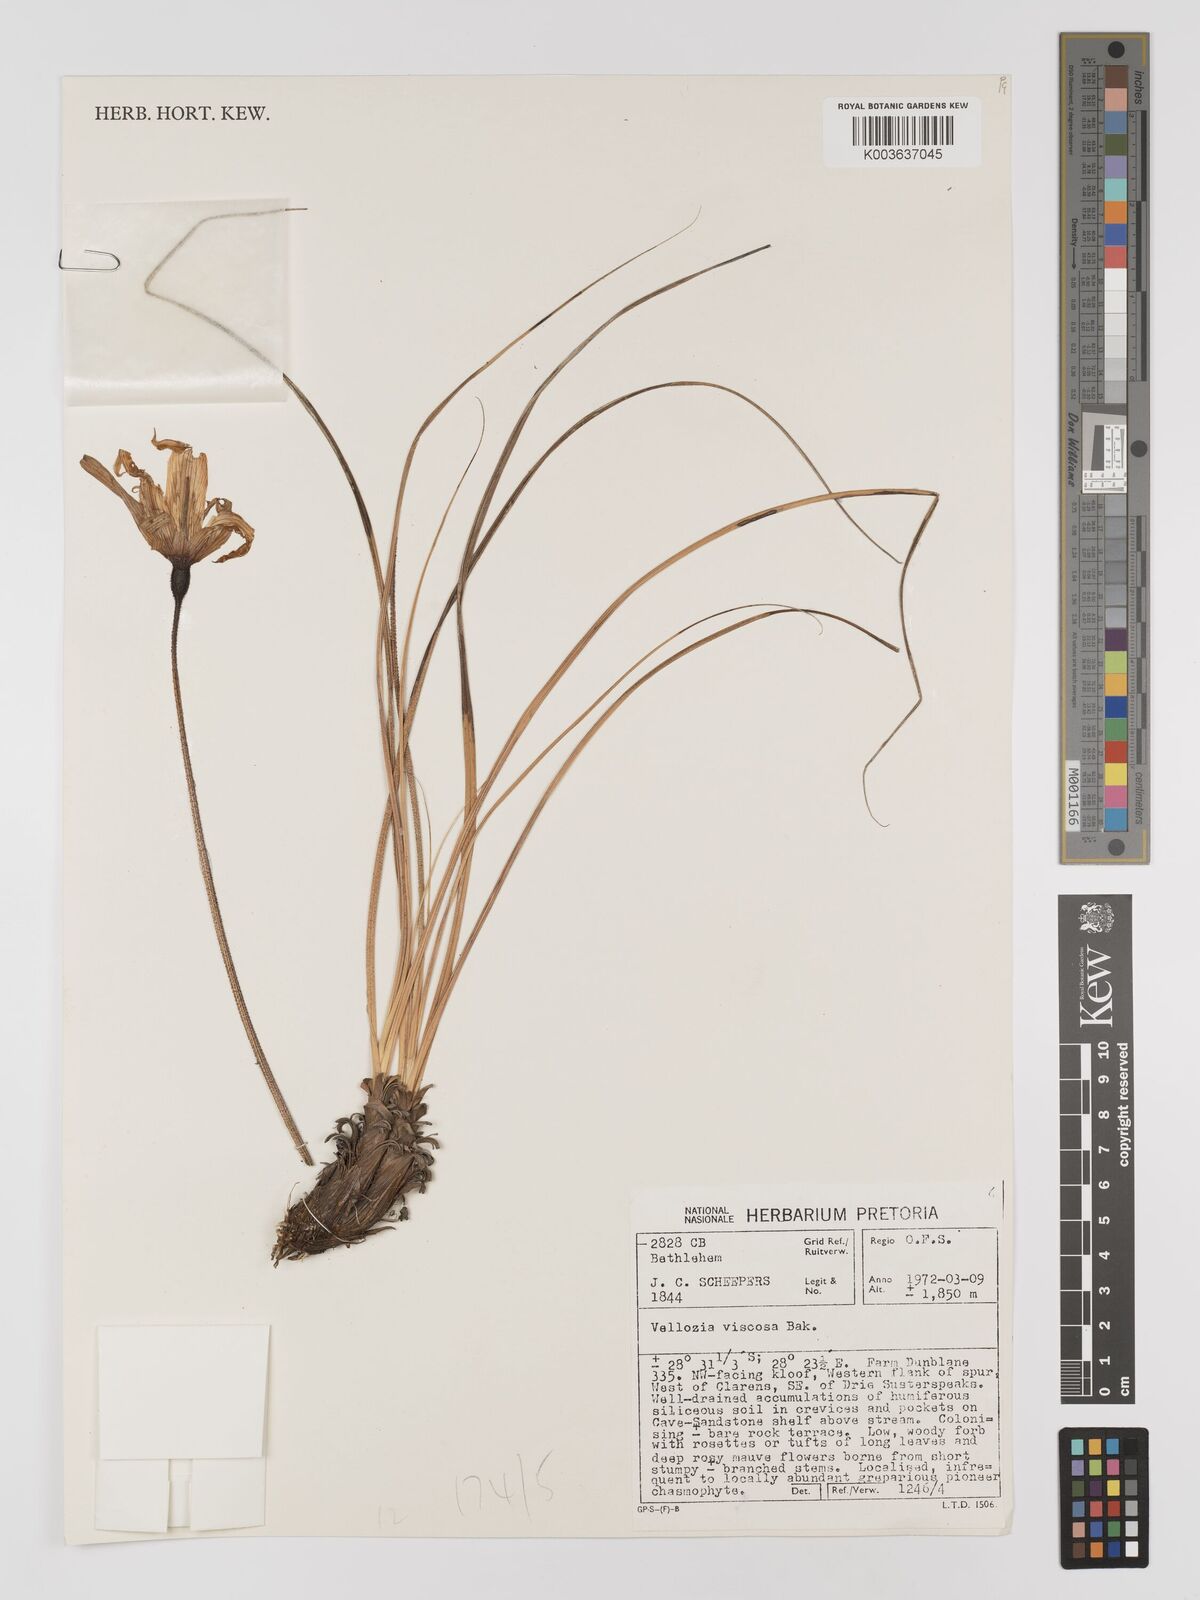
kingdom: Plantae
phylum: Tracheophyta
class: Liliopsida
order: Pandanales
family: Velloziaceae
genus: Xerophyta
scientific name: Xerophyta viscosa
